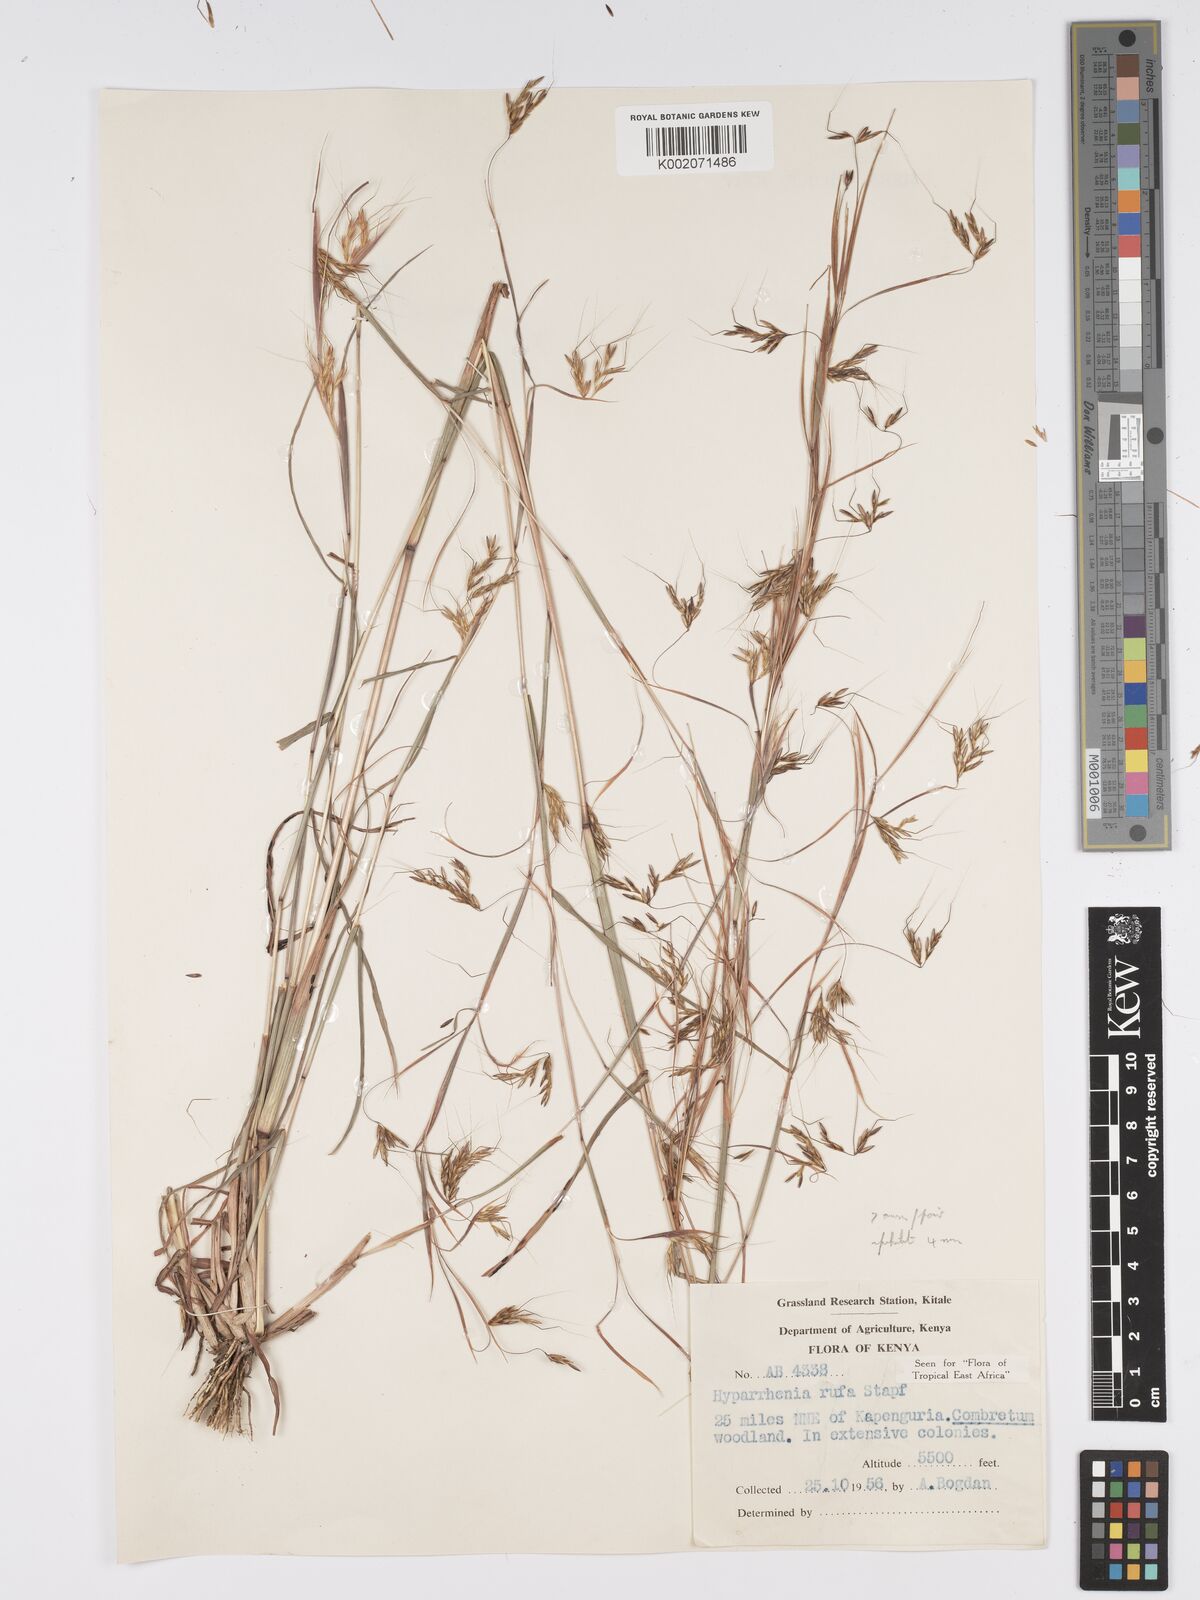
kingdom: Plantae
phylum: Tracheophyta
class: Liliopsida
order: Poales
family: Poaceae
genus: Hyparrhenia
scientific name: Hyparrhenia rufa
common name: Jaraguagrass
